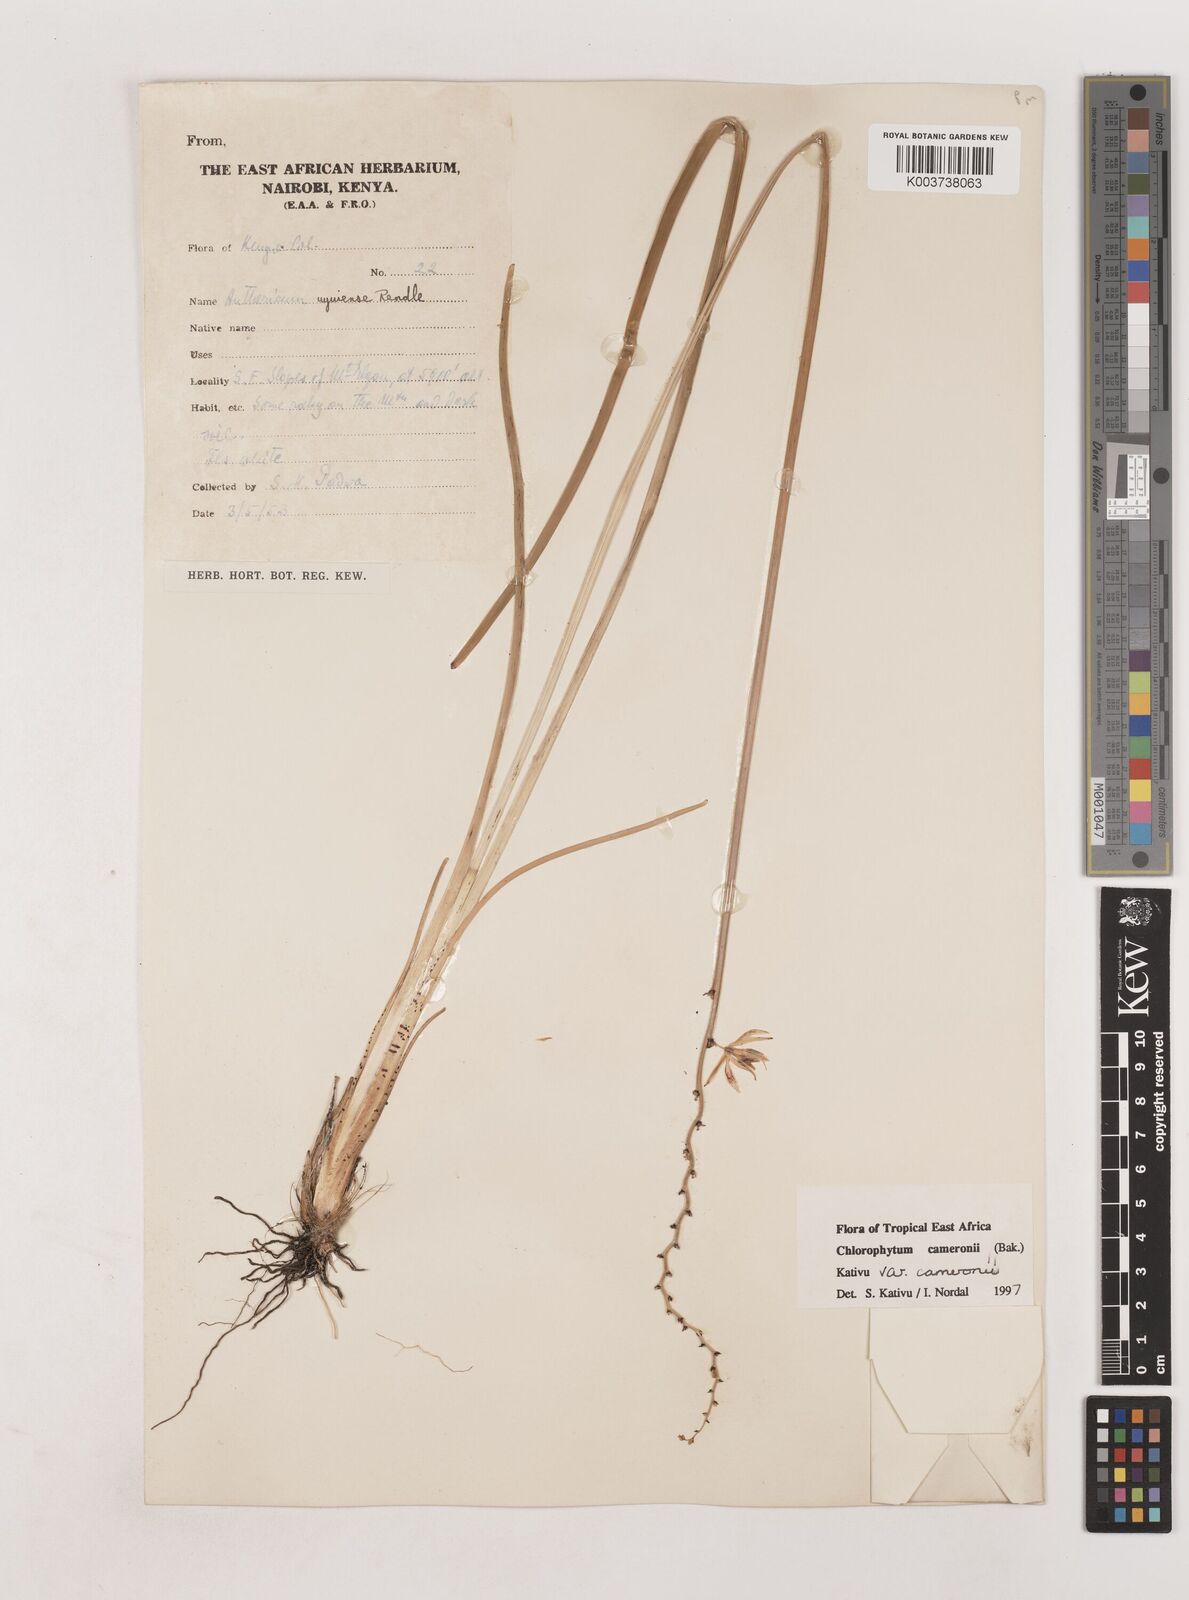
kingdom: Plantae
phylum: Tracheophyta
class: Liliopsida
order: Asparagales
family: Asparagaceae
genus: Chlorophytum
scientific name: Chlorophytum cameronii
